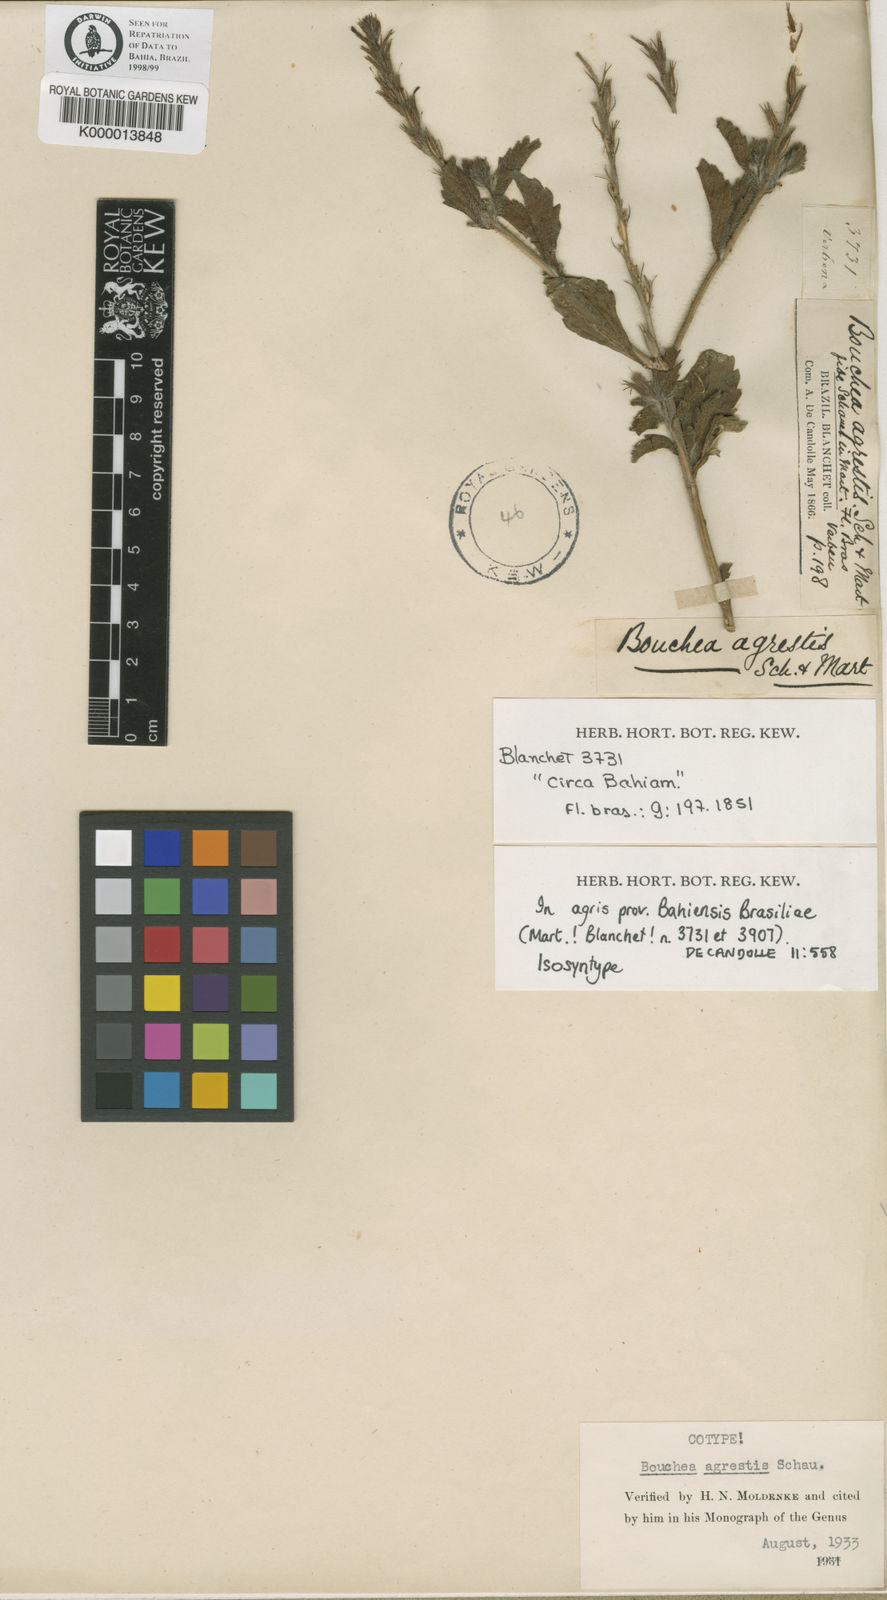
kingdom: Plantae
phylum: Tracheophyta
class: Magnoliopsida
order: Lamiales
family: Verbenaceae
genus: Bouchea
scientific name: Bouchea agrestis
